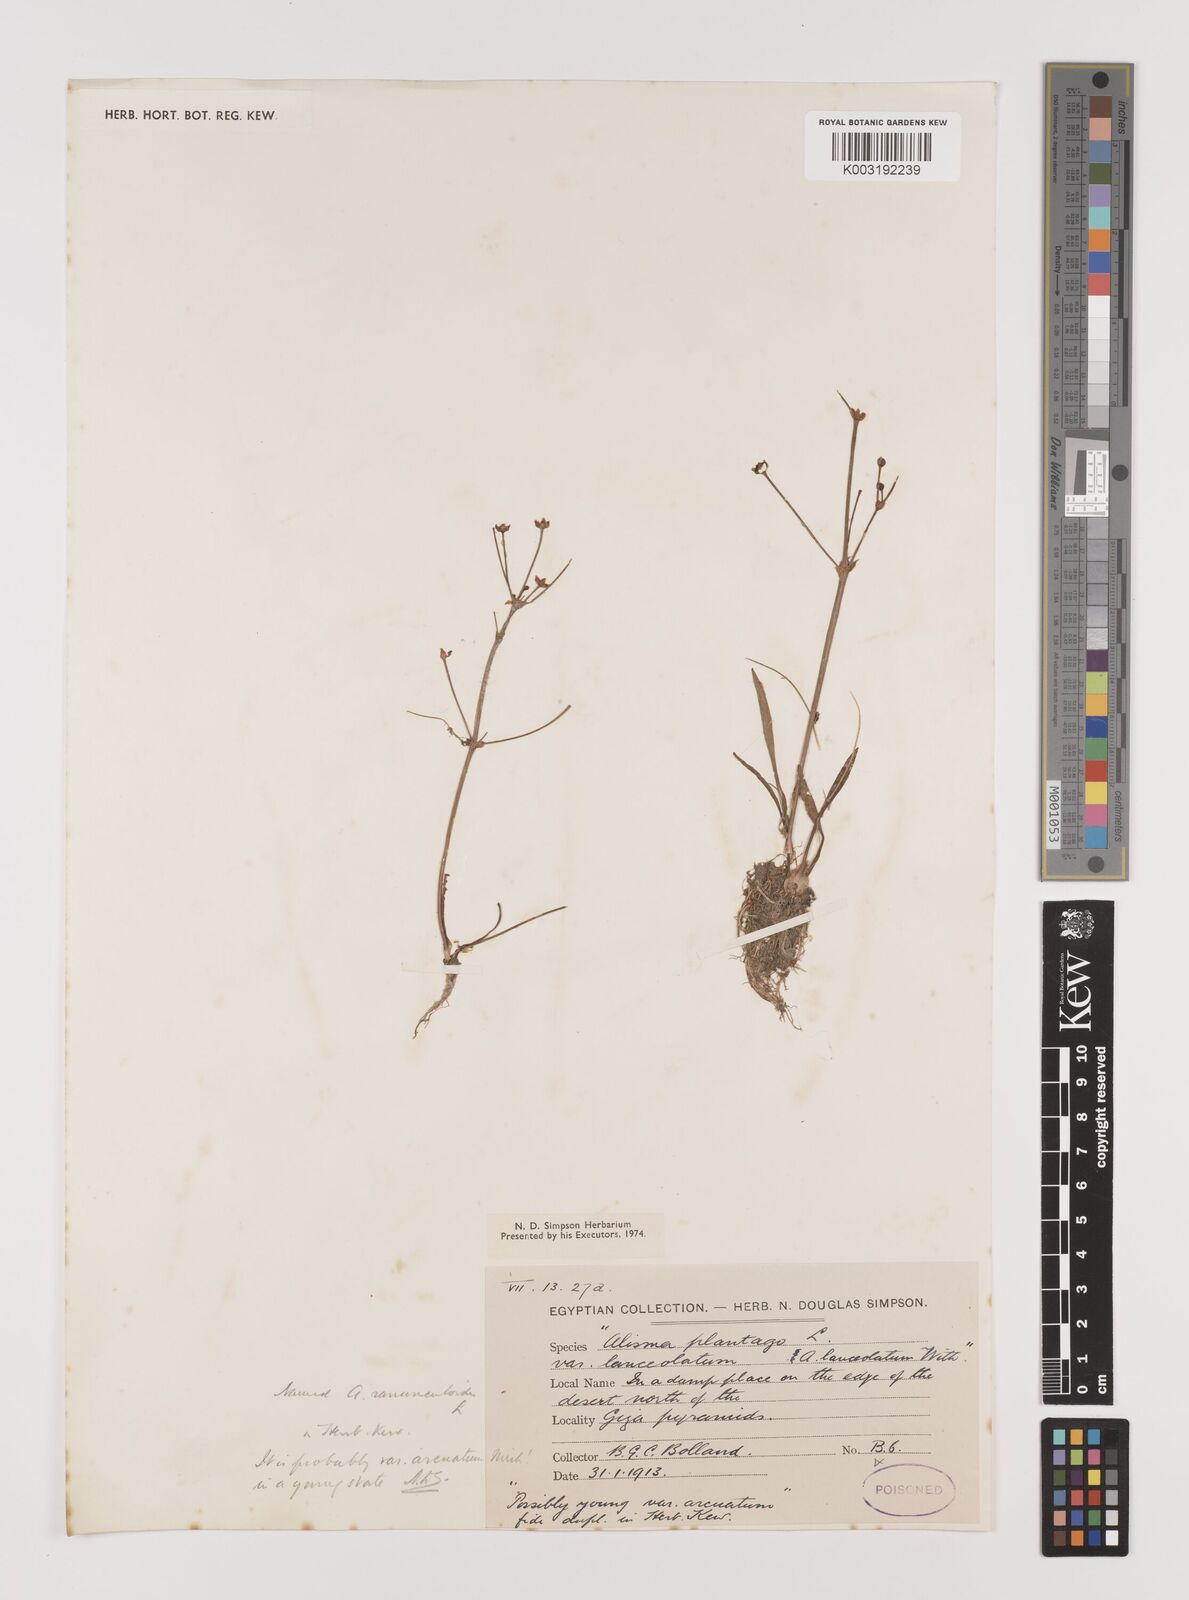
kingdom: Plantae
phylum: Tracheophyta
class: Liliopsida
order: Alismatales
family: Alismataceae
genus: Alisma
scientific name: Alisma gramineum
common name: Ribbon-leaved water-plantain
